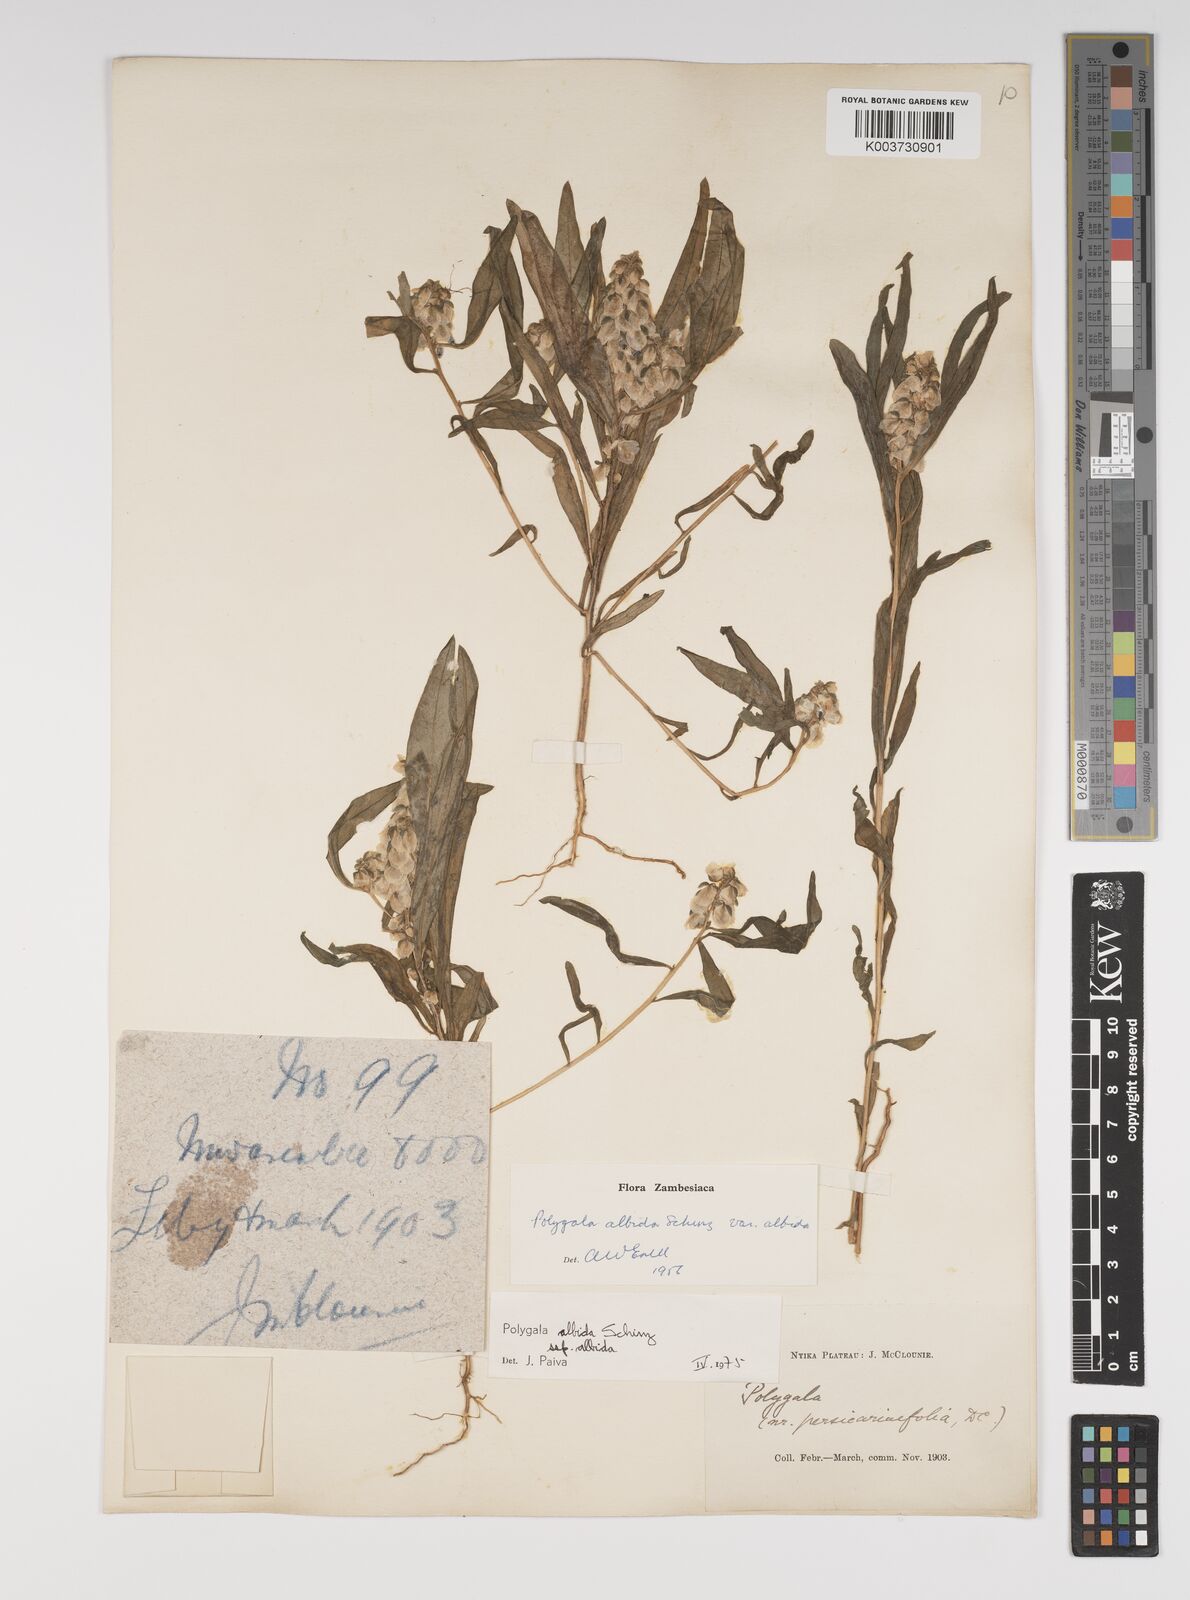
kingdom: Plantae
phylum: Tracheophyta
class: Magnoliopsida
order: Fabales
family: Polygalaceae
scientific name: Polygalaceae
